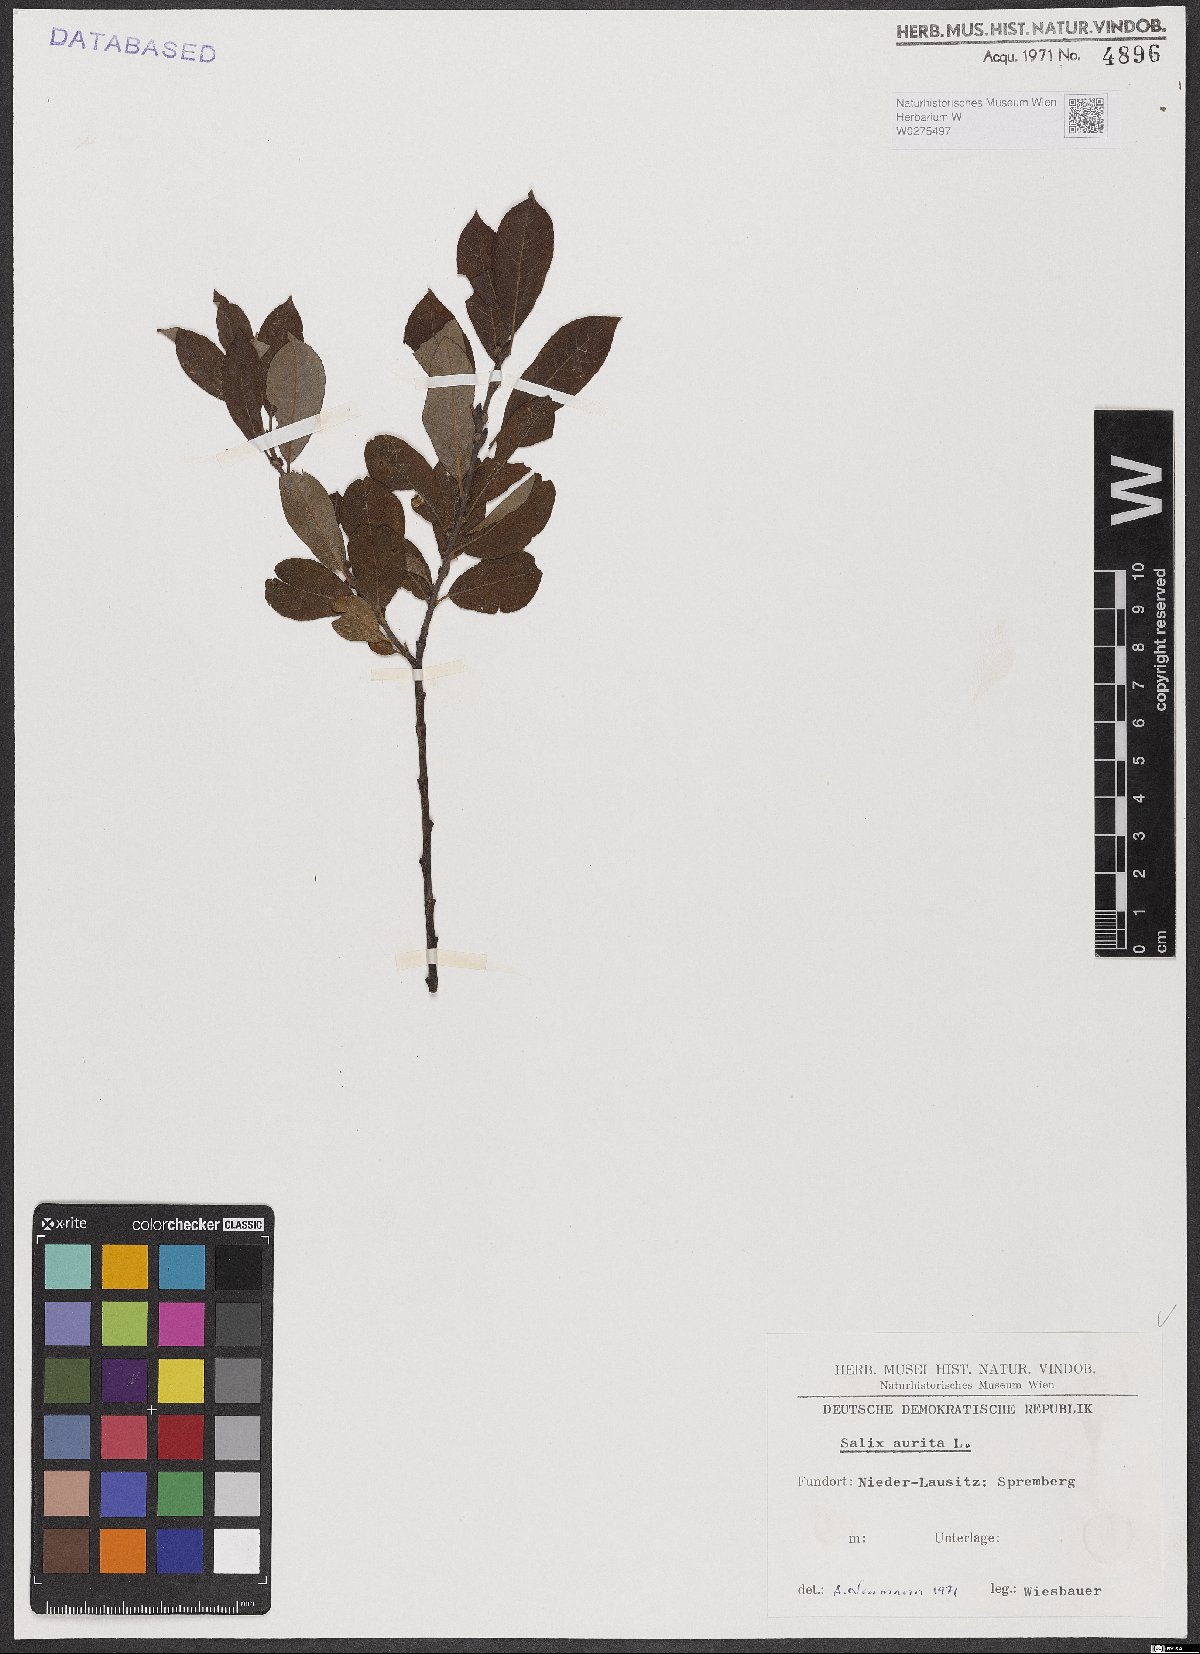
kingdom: Plantae
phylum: Tracheophyta
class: Magnoliopsida
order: Malpighiales
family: Salicaceae
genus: Salix
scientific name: Salix aurita
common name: Eared willow
